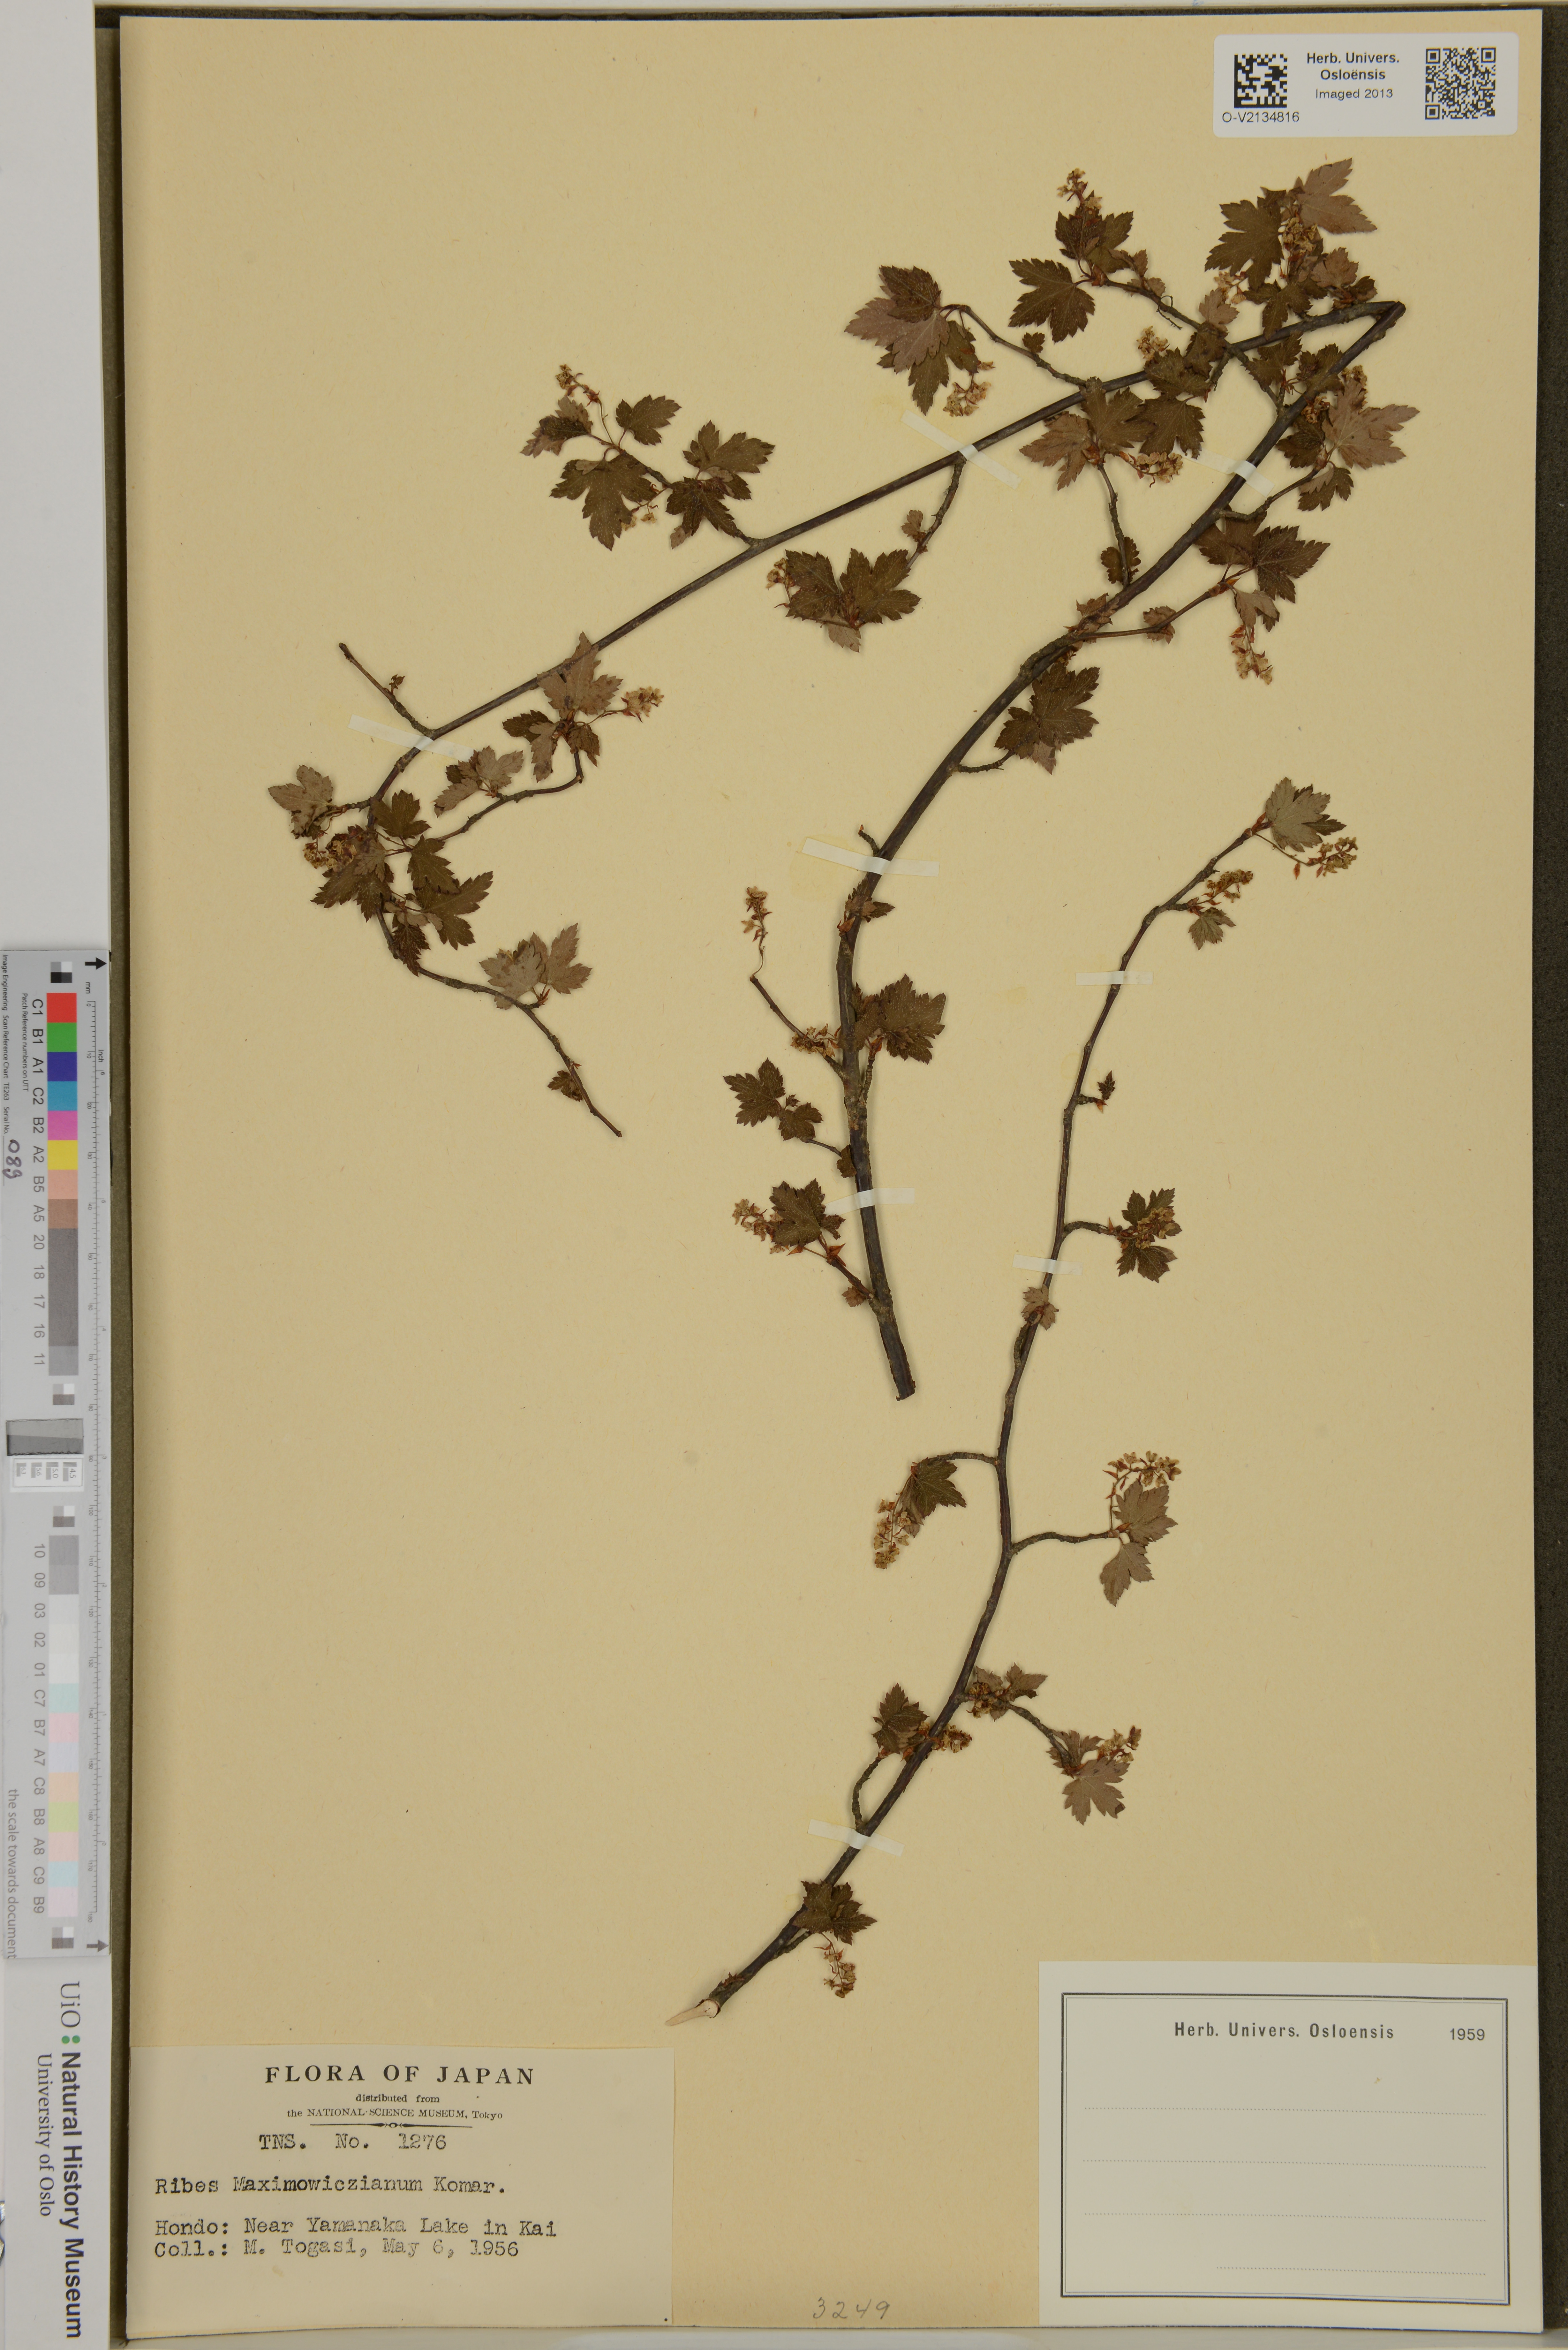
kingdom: Plantae
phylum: Tracheophyta
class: Magnoliopsida
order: Saxifragales
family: Grossulariaceae
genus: Ribes
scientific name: Ribes maximowiczianum
